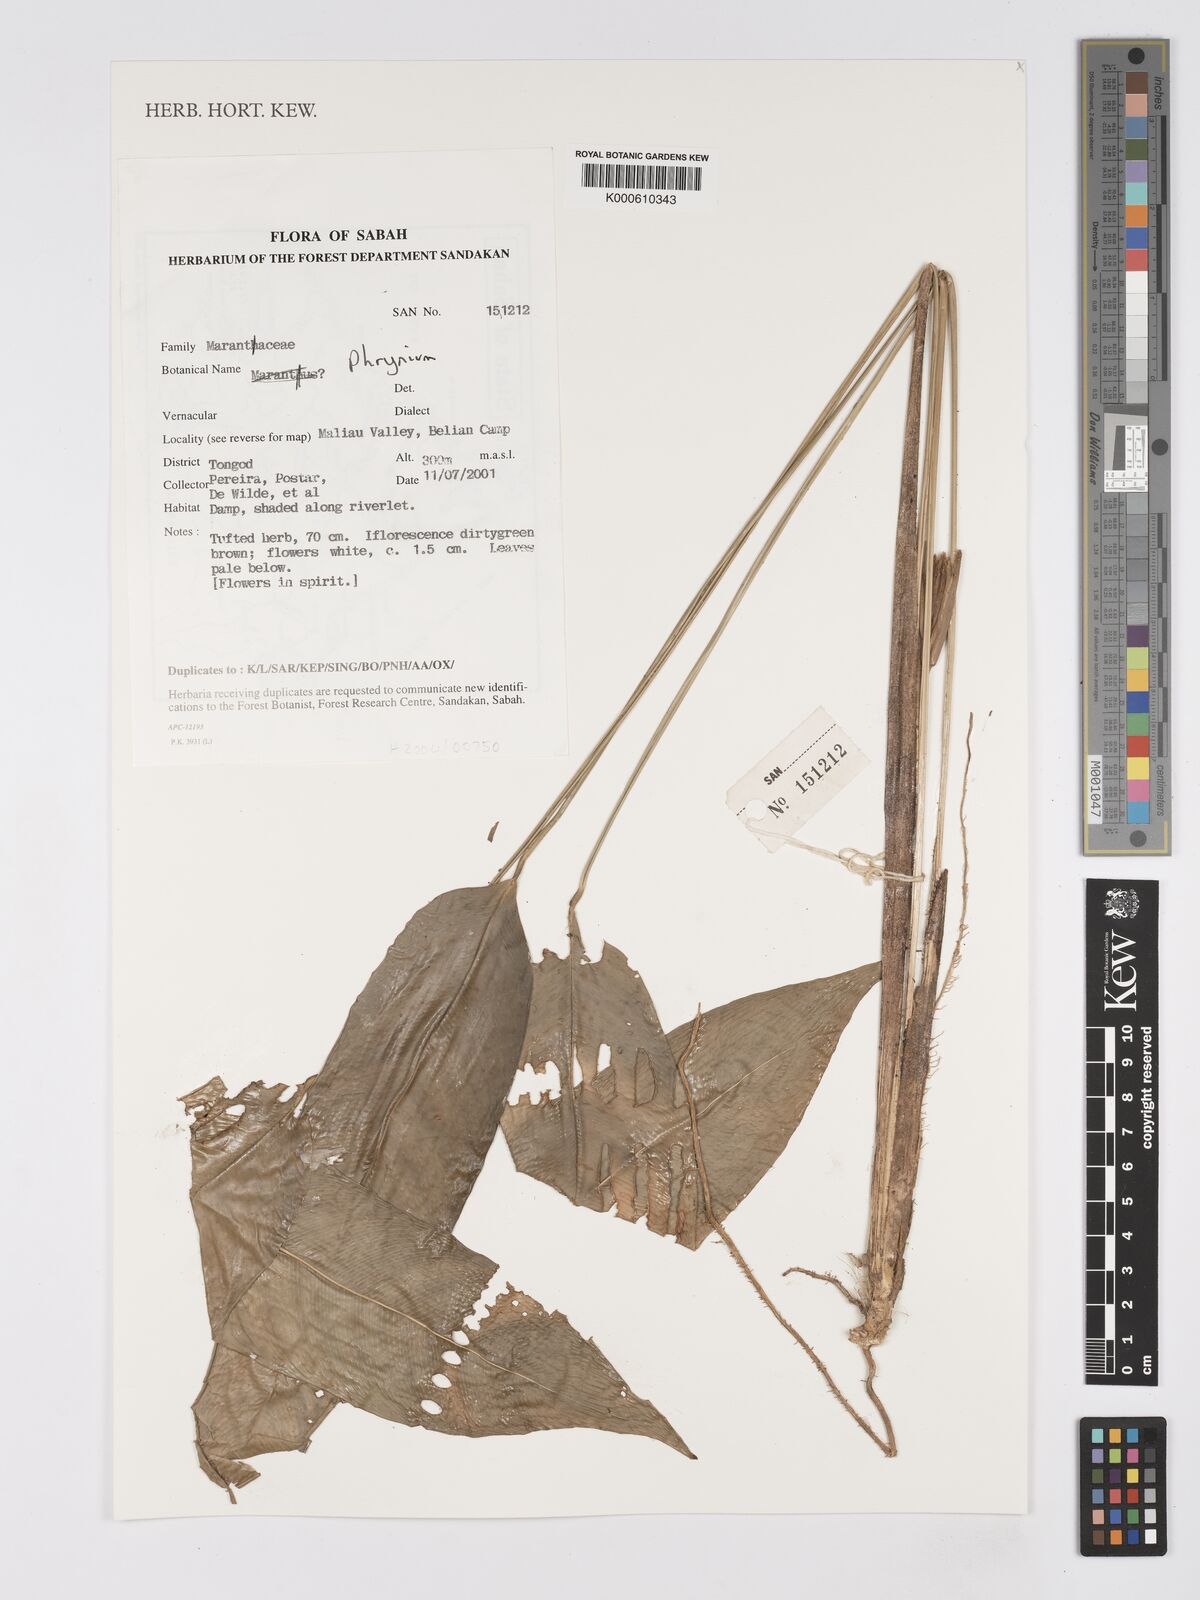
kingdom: Plantae
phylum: Tracheophyta
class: Liliopsida
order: Zingiberales
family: Marantaceae
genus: Phrynium
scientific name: Phrynium
